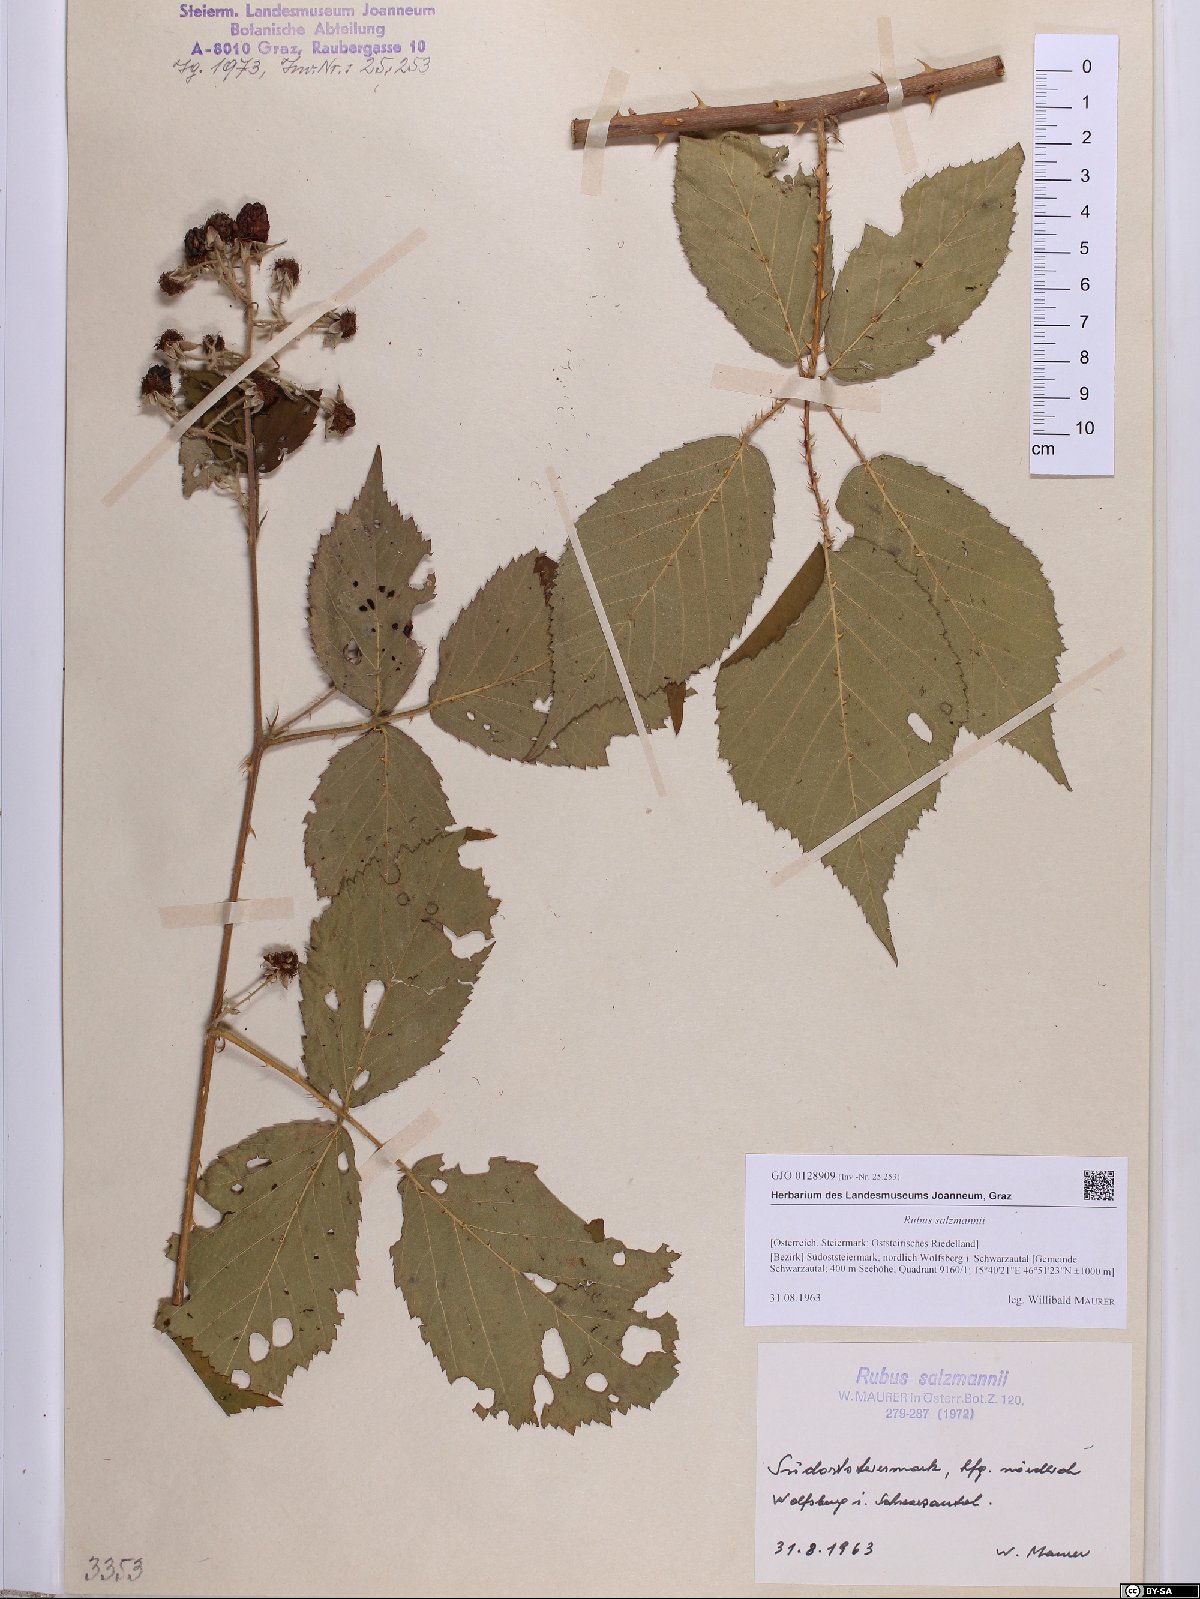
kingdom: Plantae
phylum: Tracheophyta
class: Magnoliopsida
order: Rosales
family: Rosaceae
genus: Rubus
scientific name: Rubus salzmannii
